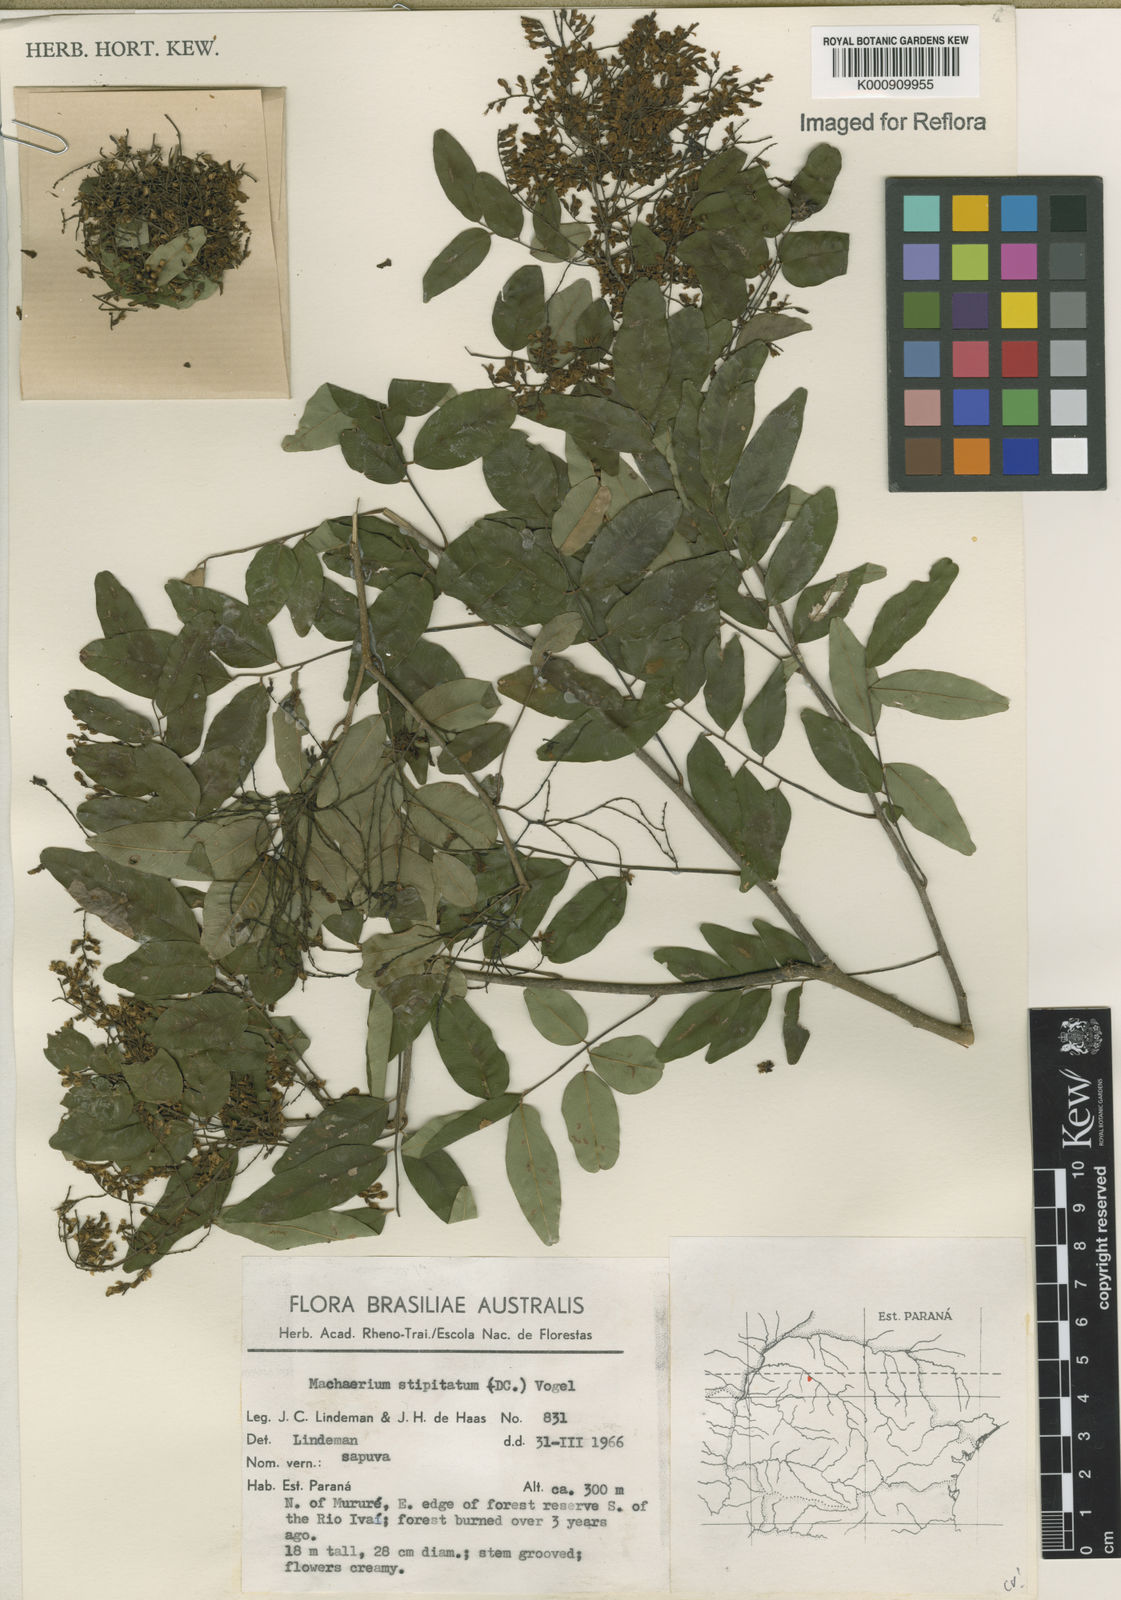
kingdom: Plantae
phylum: Tracheophyta
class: Magnoliopsida
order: Fabales
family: Fabaceae
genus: Machaerium
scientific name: Machaerium stipitatum
